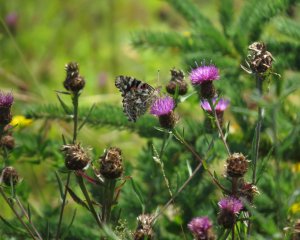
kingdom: Animalia
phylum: Arthropoda
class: Insecta
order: Lepidoptera
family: Nymphalidae
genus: Vanessa
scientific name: Vanessa cardui
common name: Painted Lady
